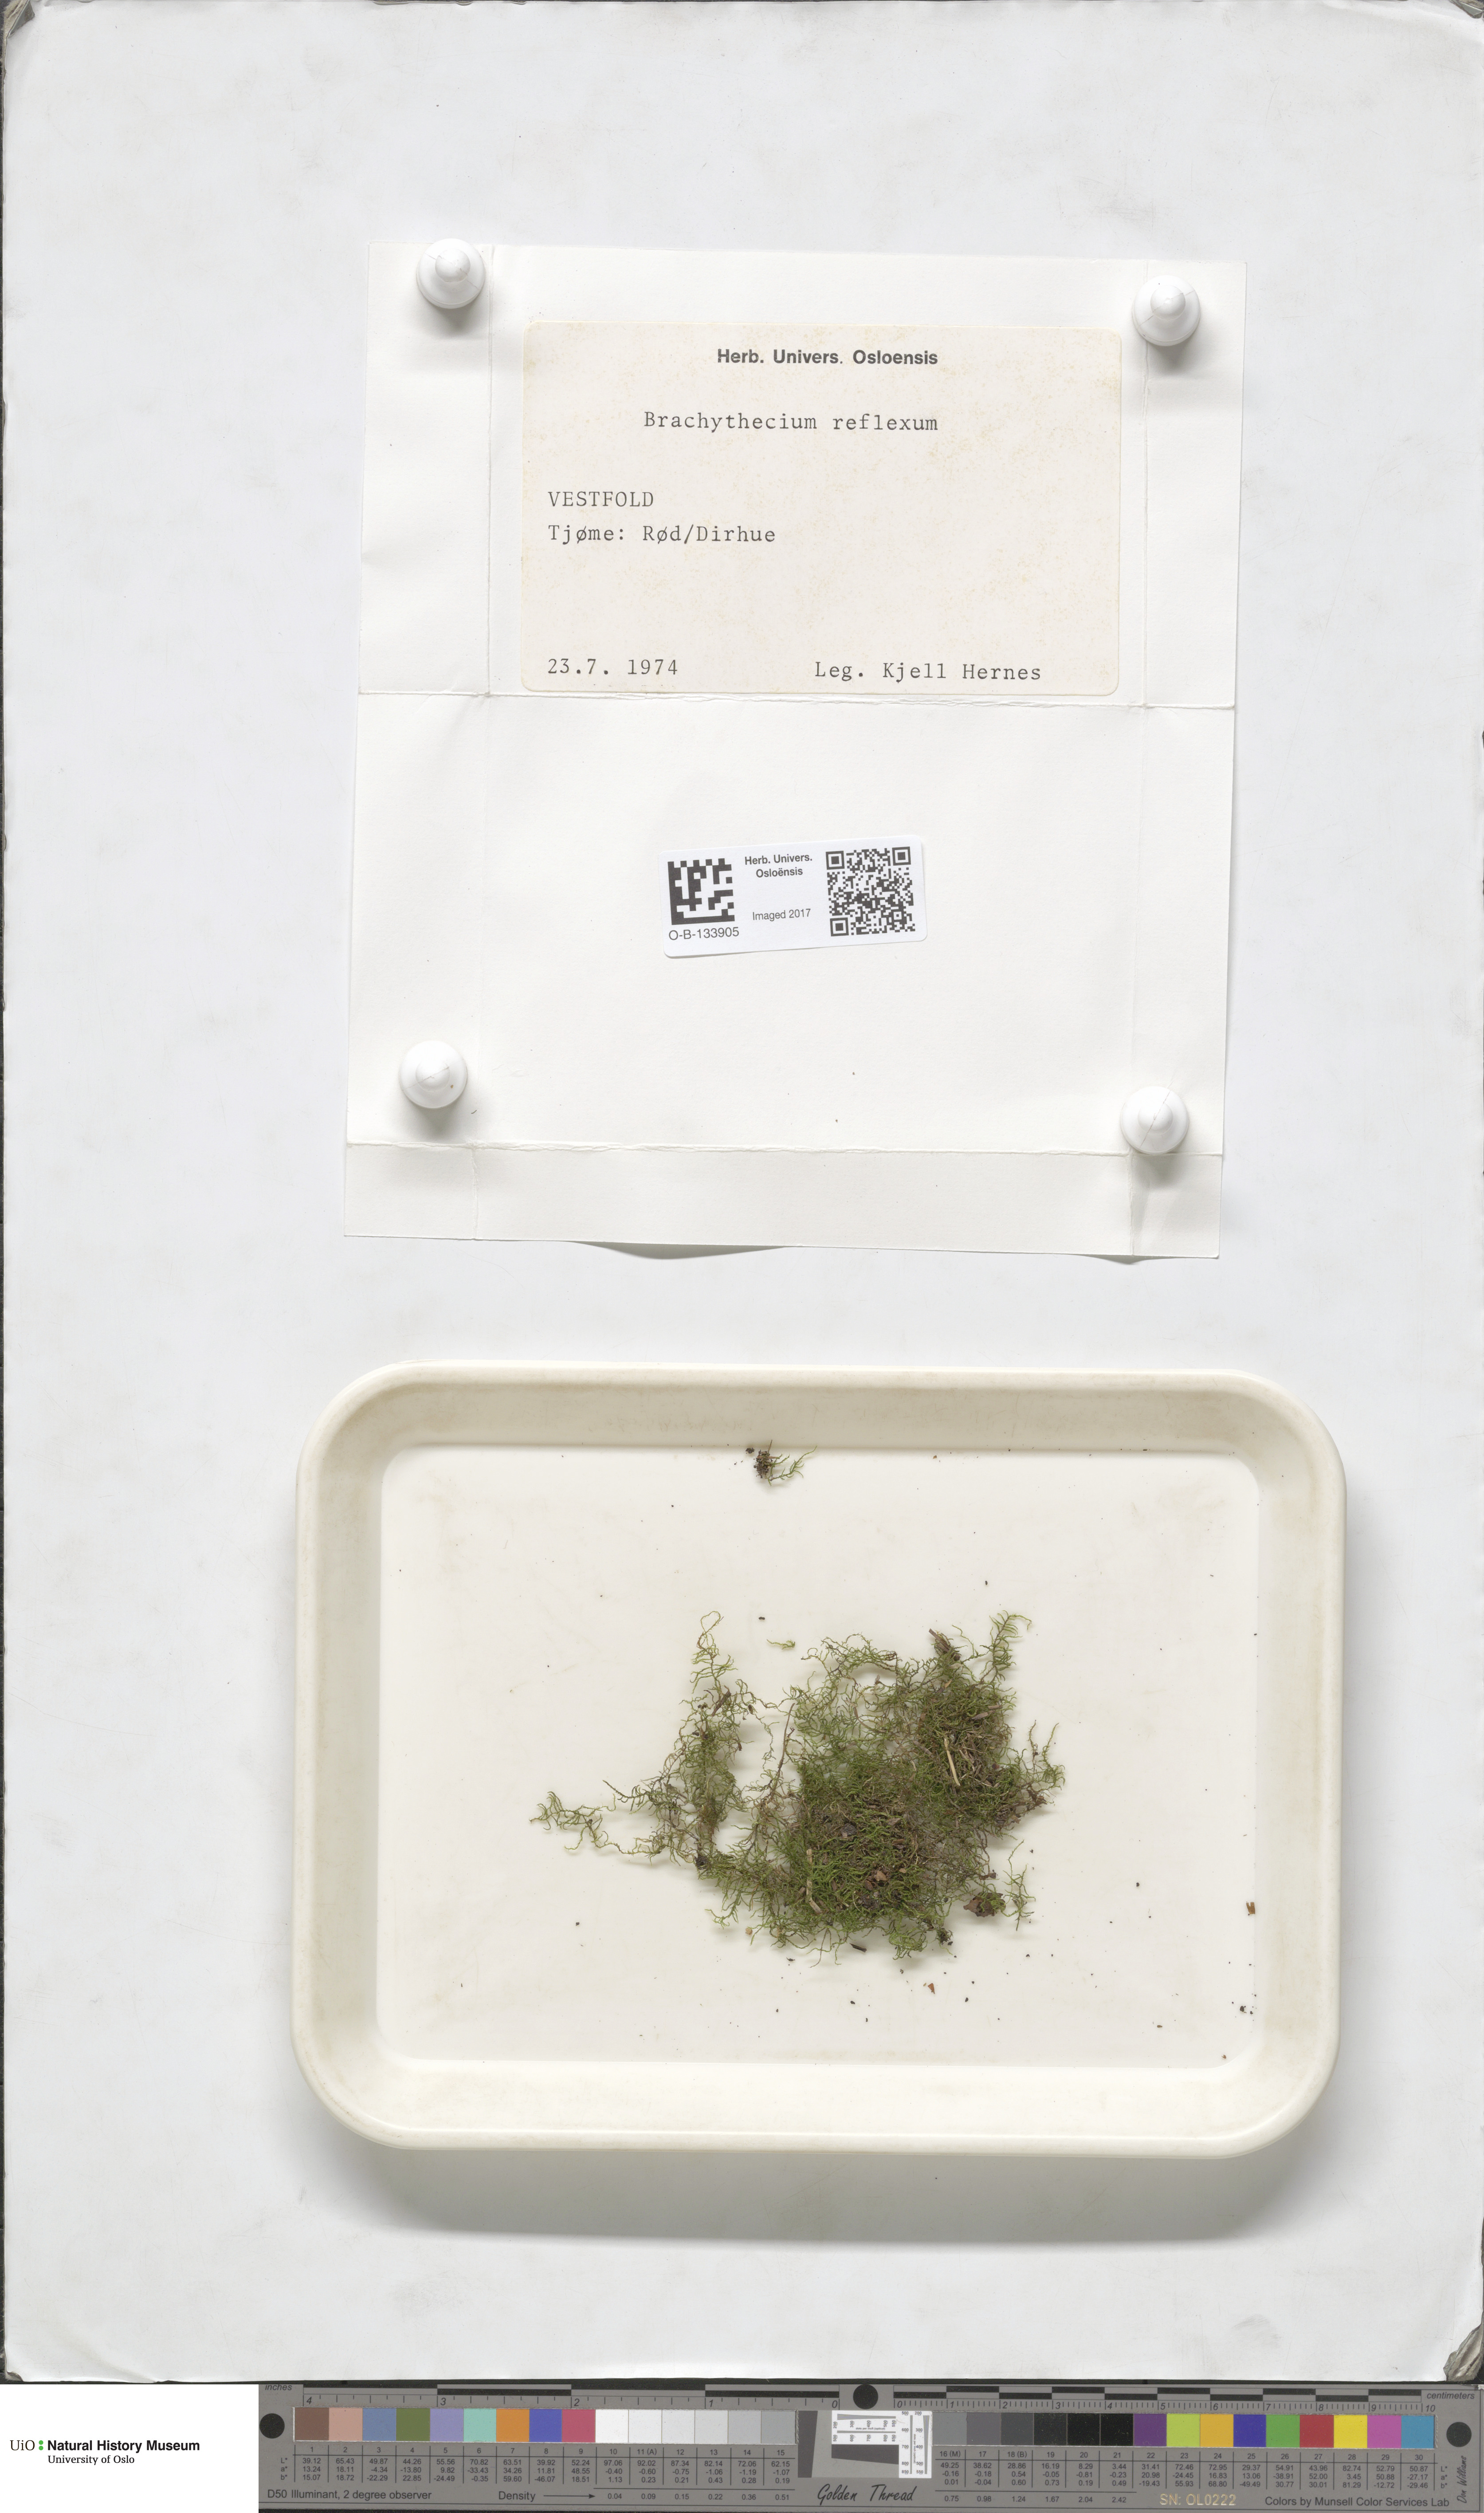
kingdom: Plantae
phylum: Bryophyta
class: Bryopsida
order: Hypnales
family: Brachytheciaceae
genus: Sciuro-hypnum
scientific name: Sciuro-hypnum reflexum
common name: Reflexed feather-moss
